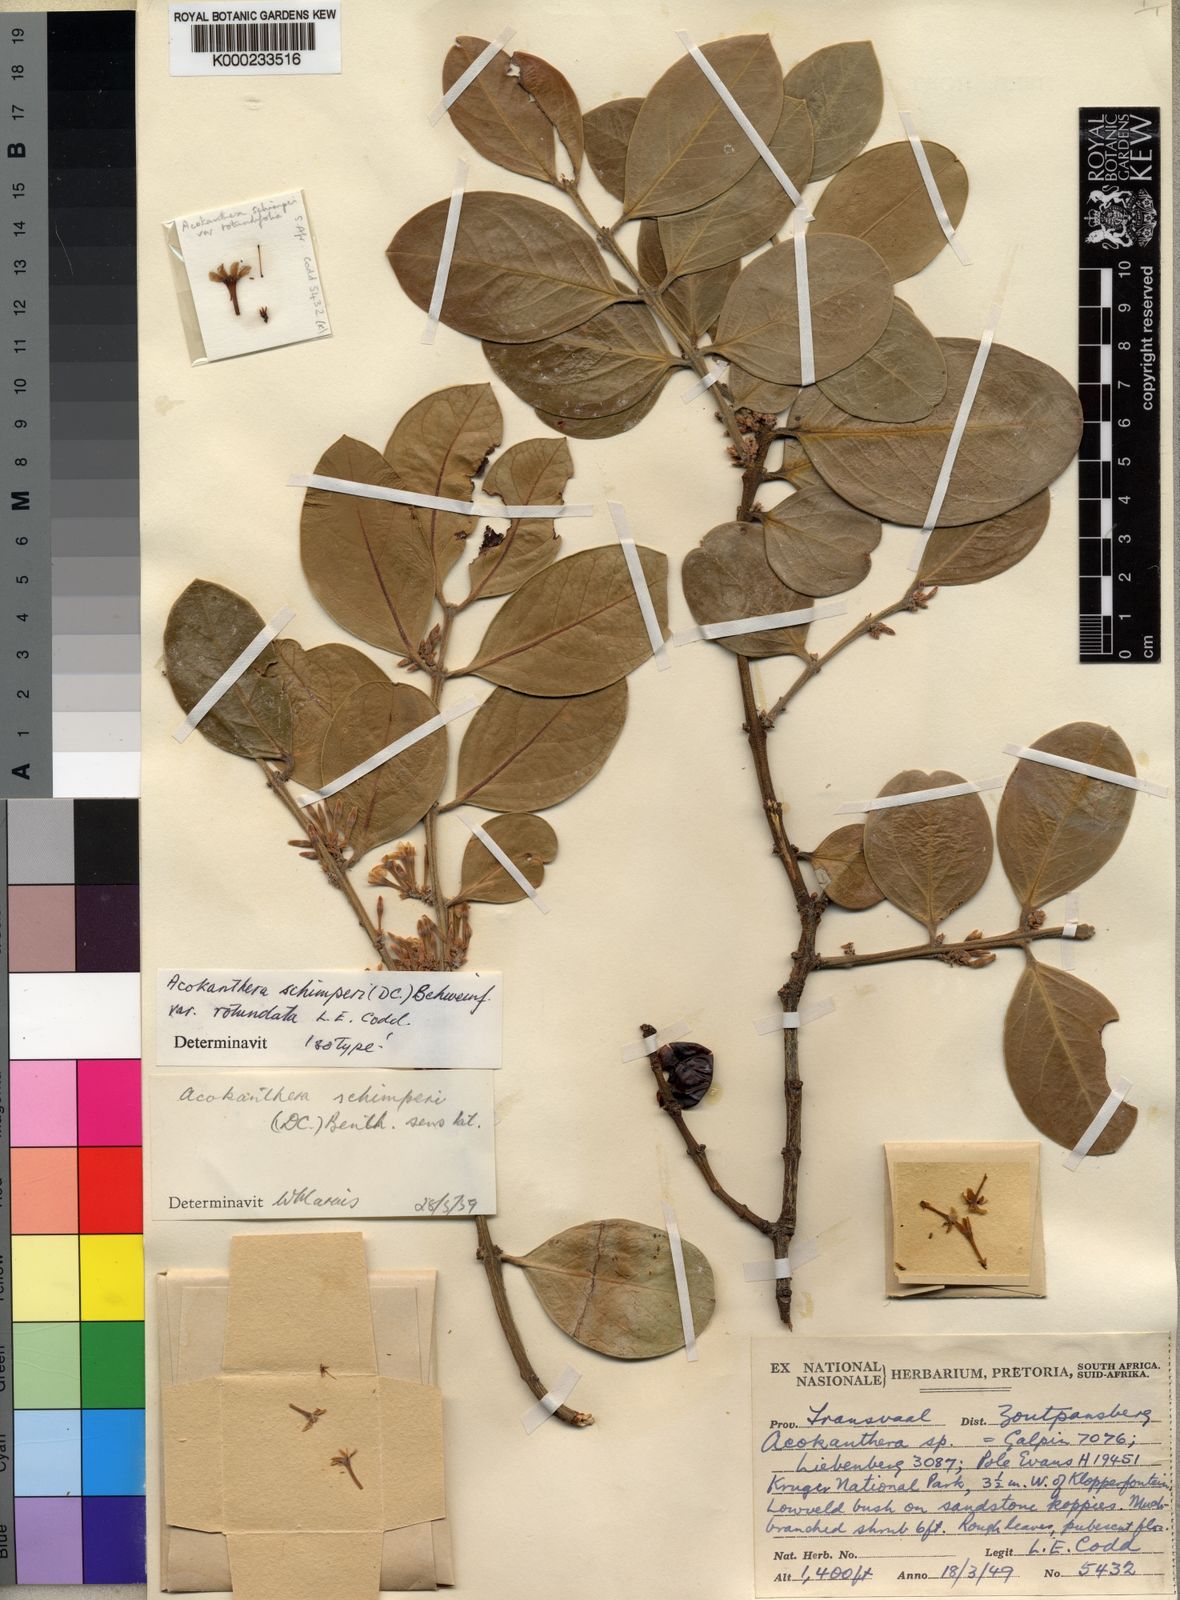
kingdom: Plantae
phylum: Tracheophyta
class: Magnoliopsida
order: Gentianales
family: Apocynaceae
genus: Acokanthera
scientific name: Acokanthera
